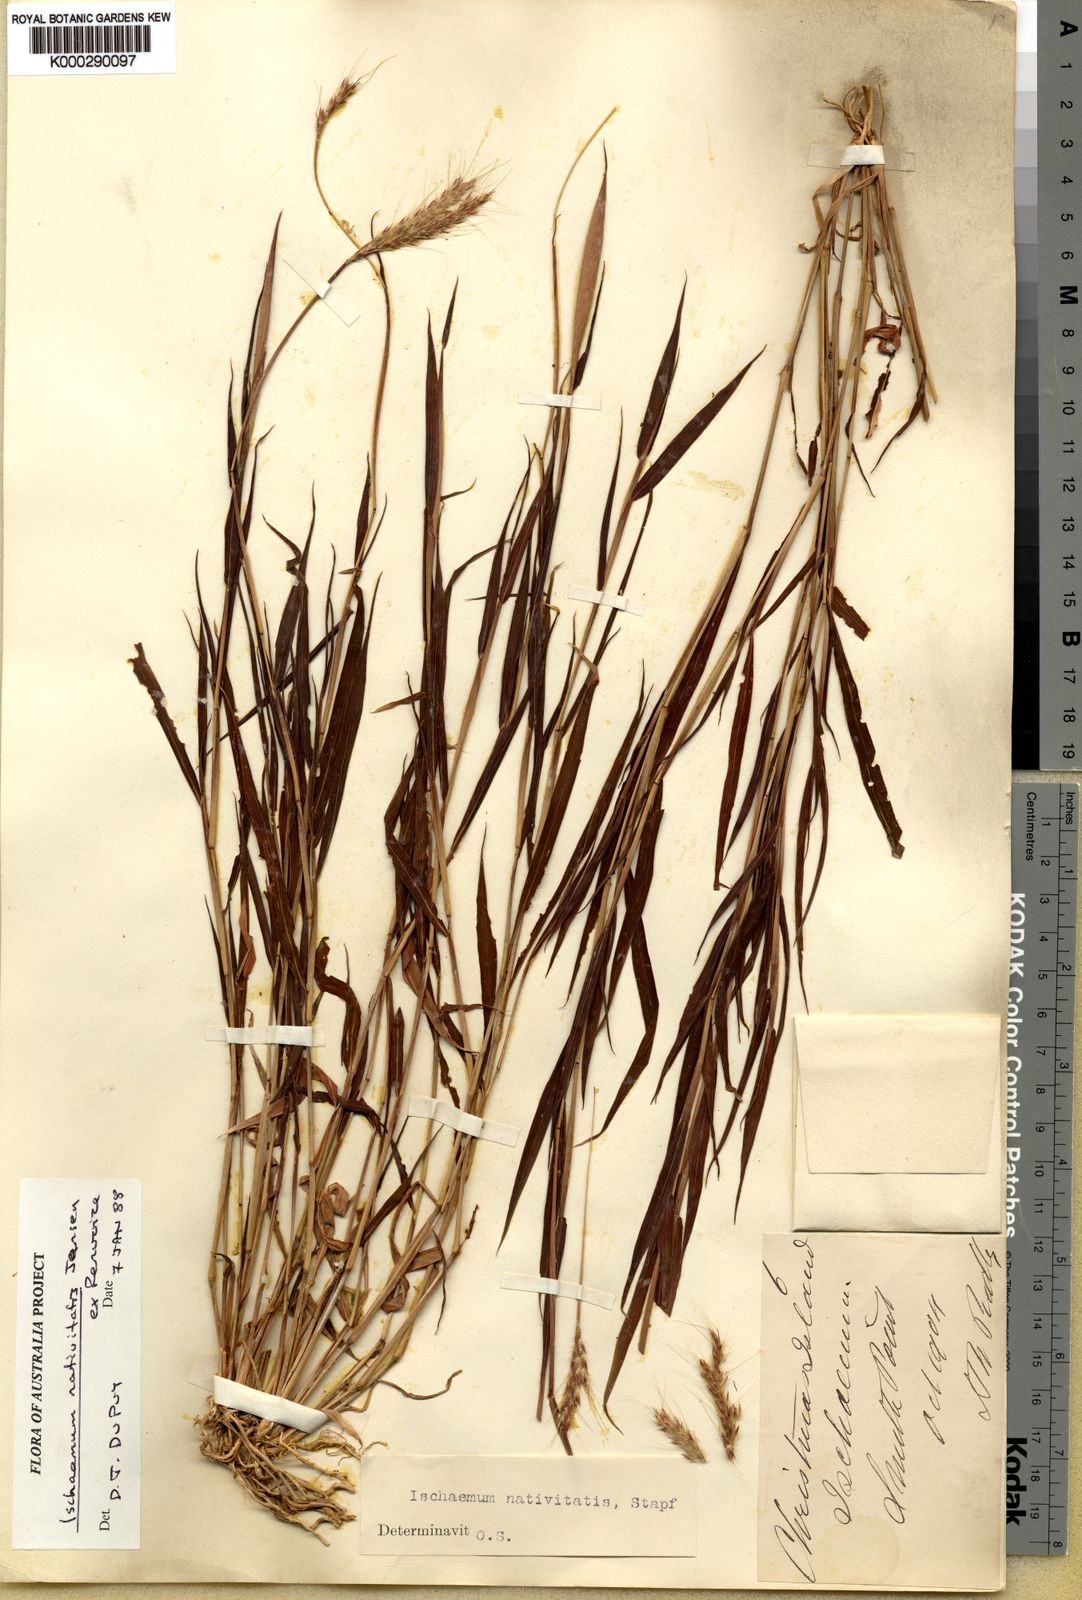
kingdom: Plantae
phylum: Tracheophyta
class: Liliopsida
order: Poales
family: Poaceae
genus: Ischaemum
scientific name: Ischaemum murinum
